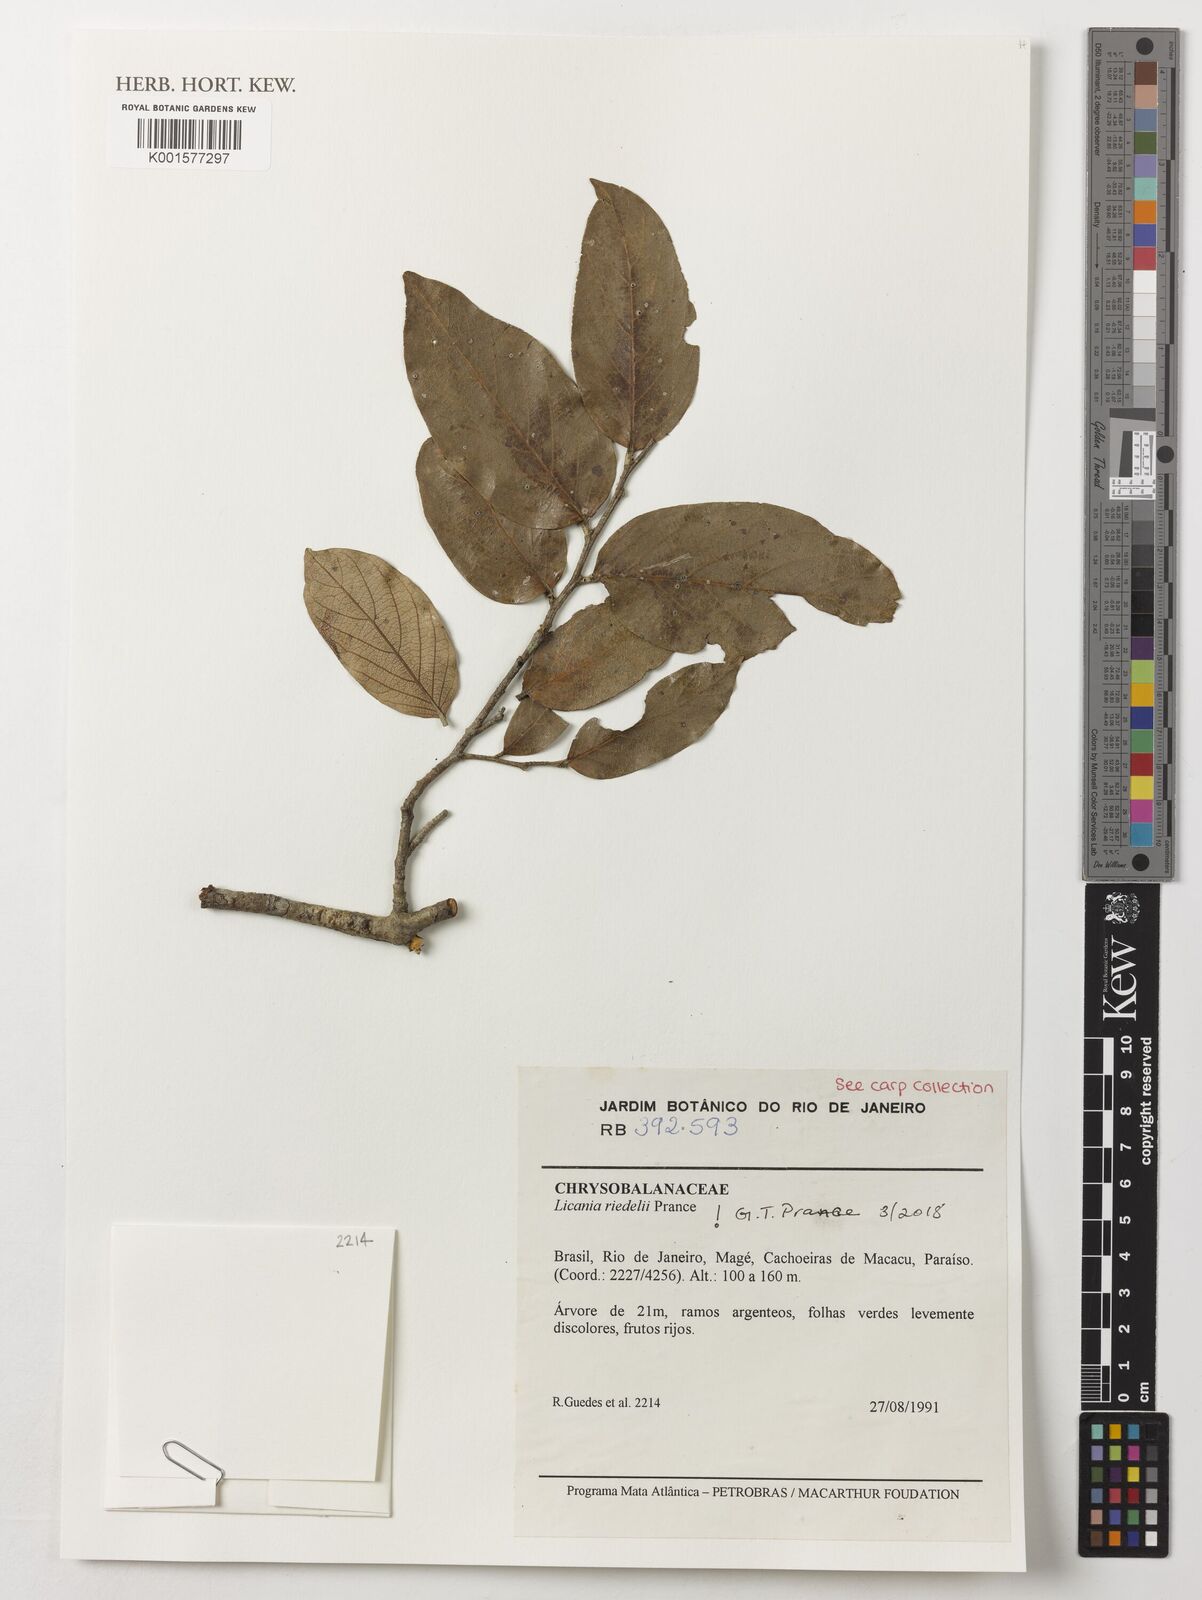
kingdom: Plantae
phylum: Tracheophyta
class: Magnoliopsida
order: Malpighiales
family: Chrysobalanaceae
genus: Licania
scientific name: Licania riedelii
